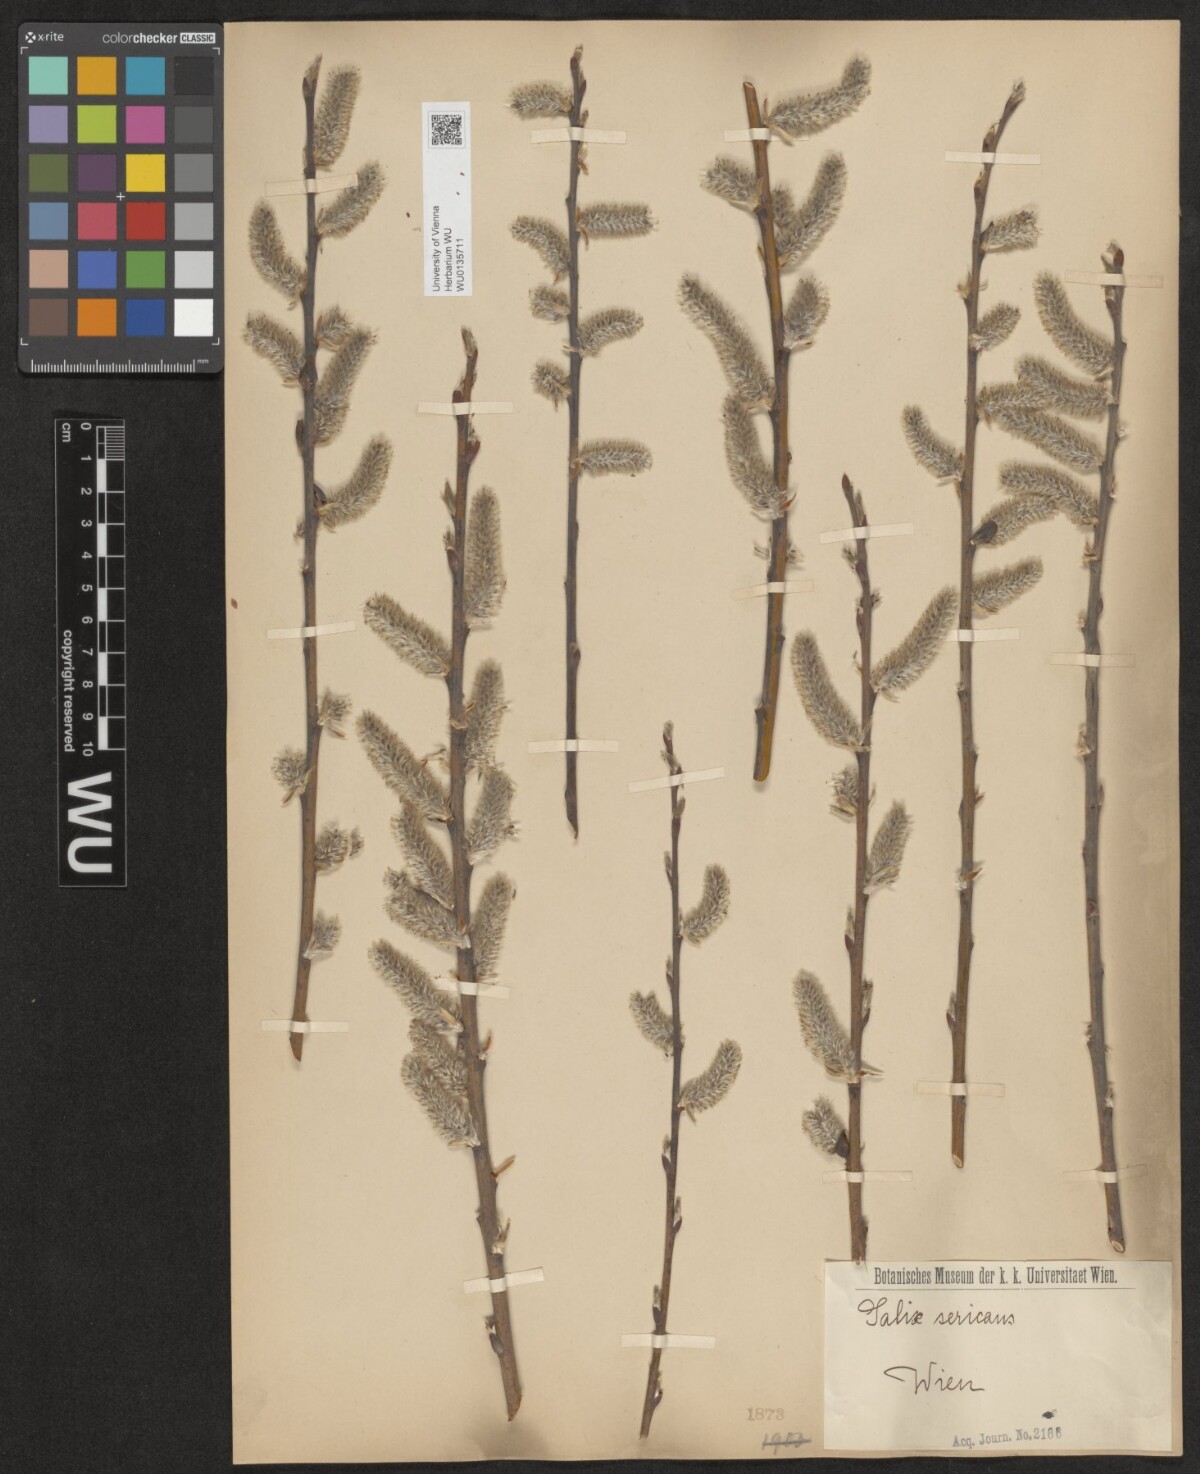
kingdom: Plantae
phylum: Tracheophyta
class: Magnoliopsida
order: Malpighiales
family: Salicaceae
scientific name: Salicaceae
